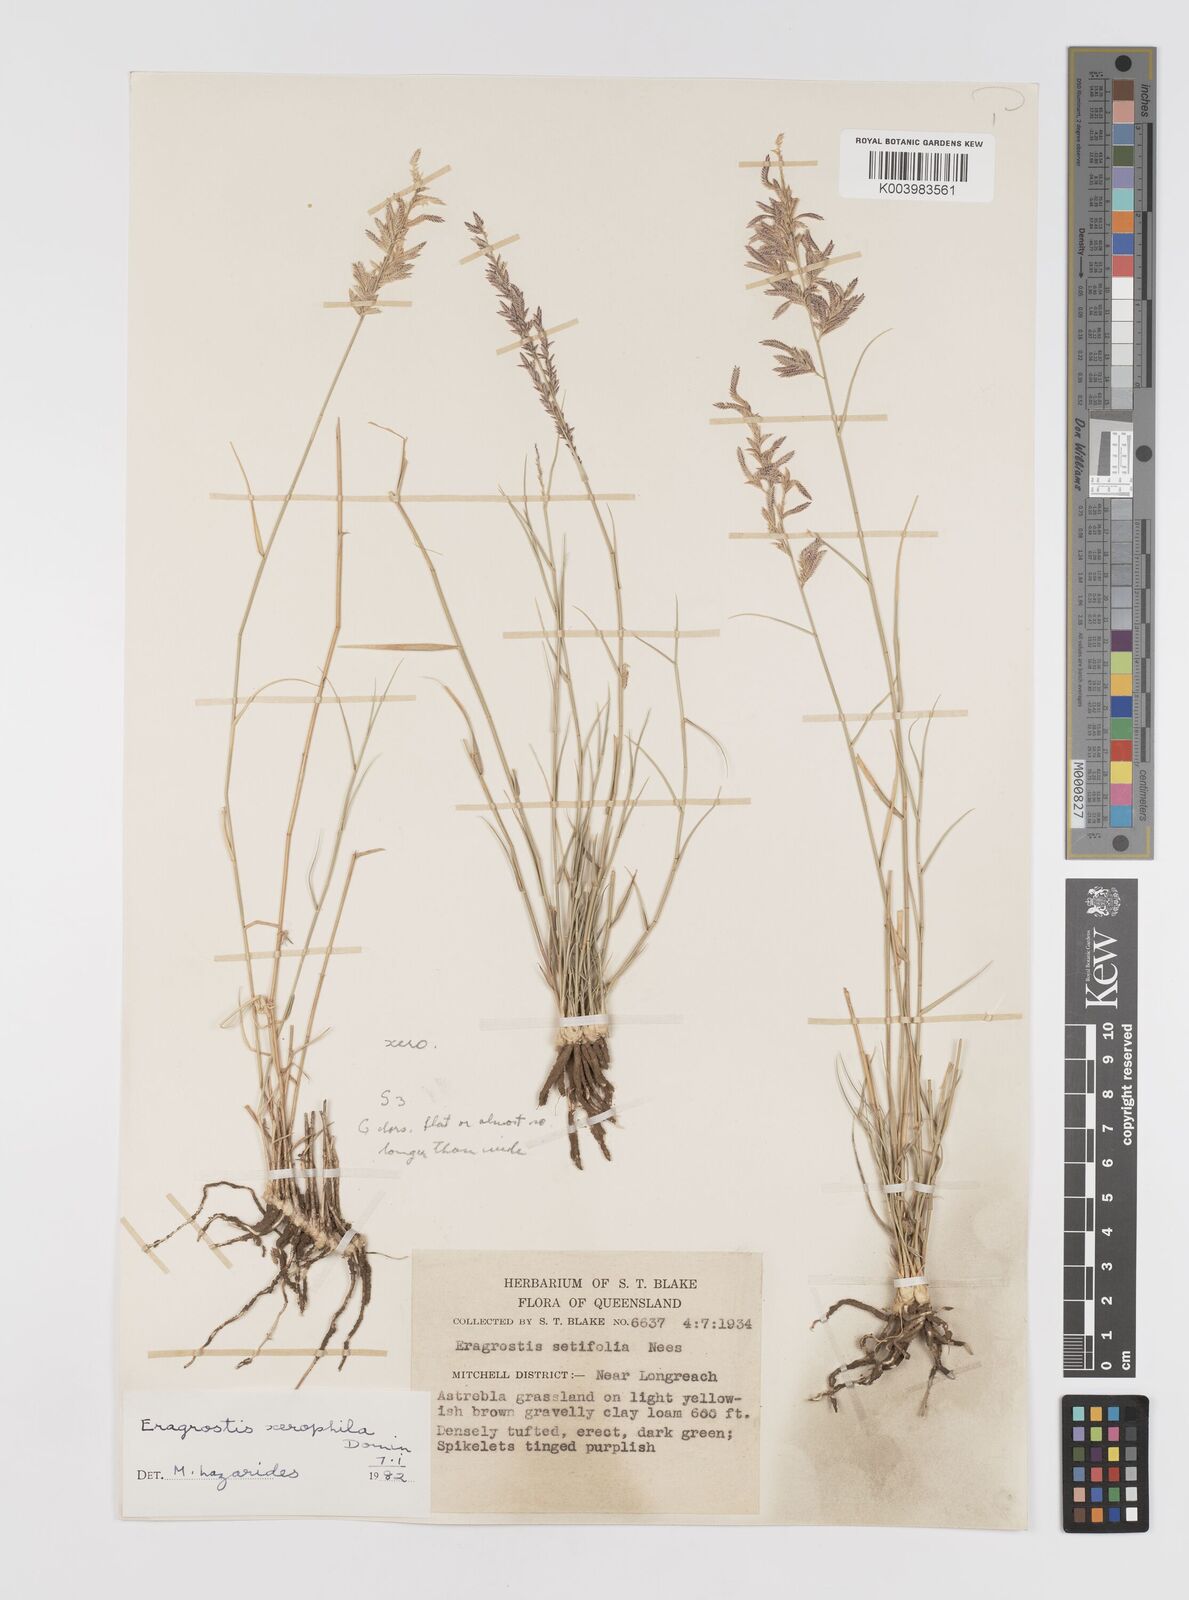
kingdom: Plantae
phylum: Tracheophyta
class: Liliopsida
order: Poales
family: Poaceae
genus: Eragrostis
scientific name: Eragrostis xerophila
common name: Wire wandarrie grass
